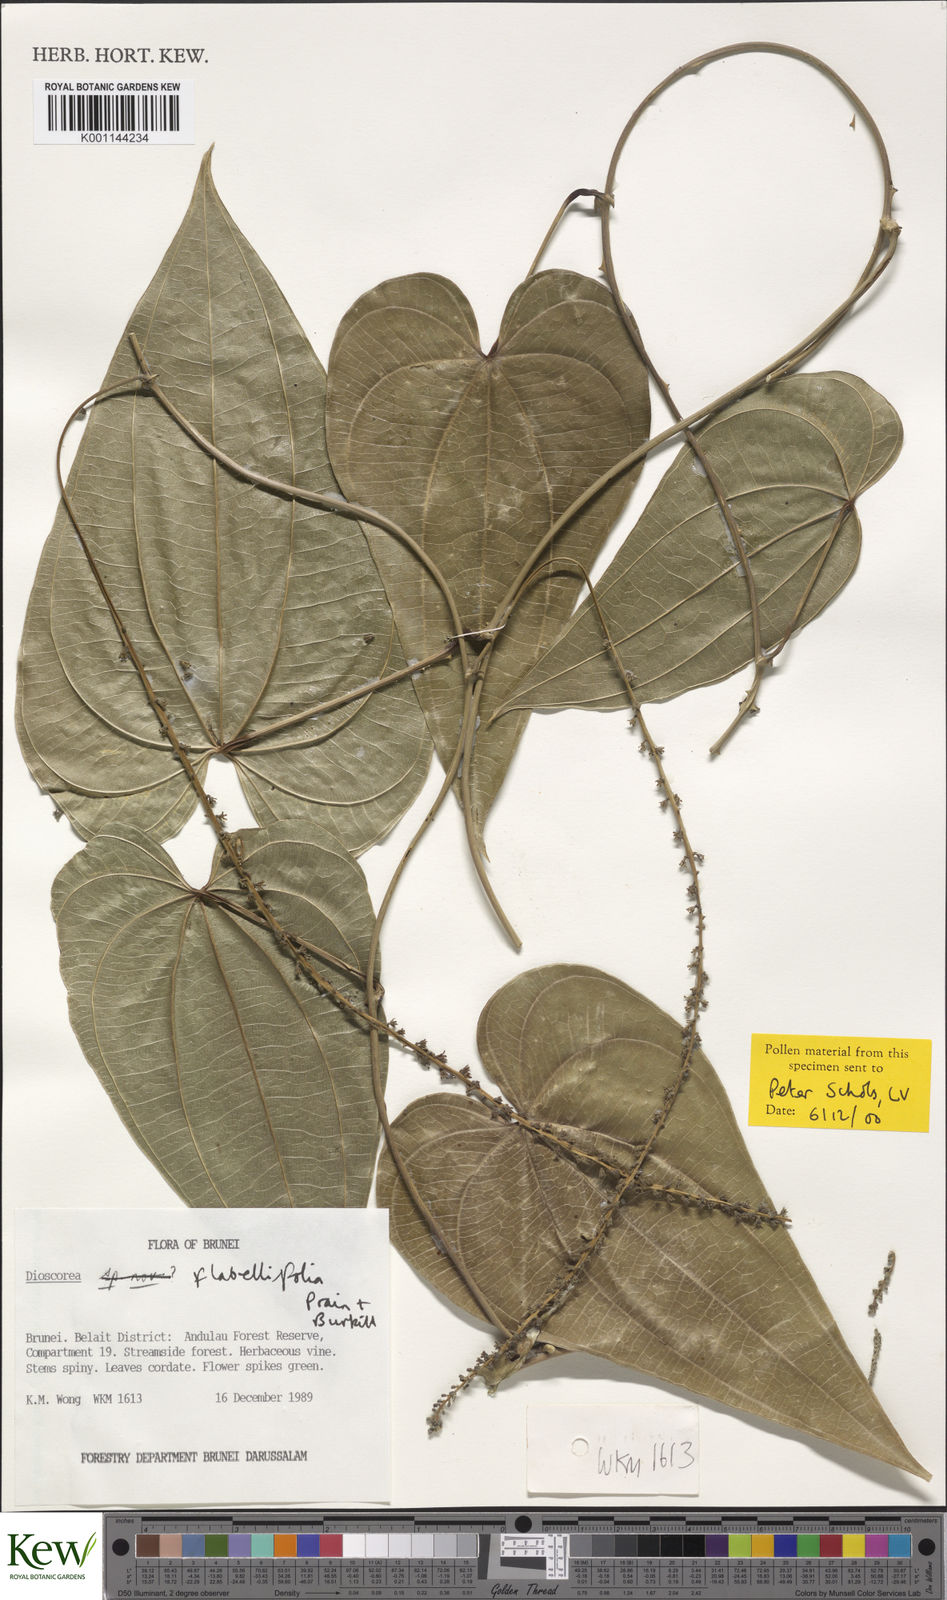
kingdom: Plantae
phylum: Tracheophyta
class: Liliopsida
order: Dioscoreales
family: Dioscoreaceae
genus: Dioscorea
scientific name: Dioscorea flabellifolia
